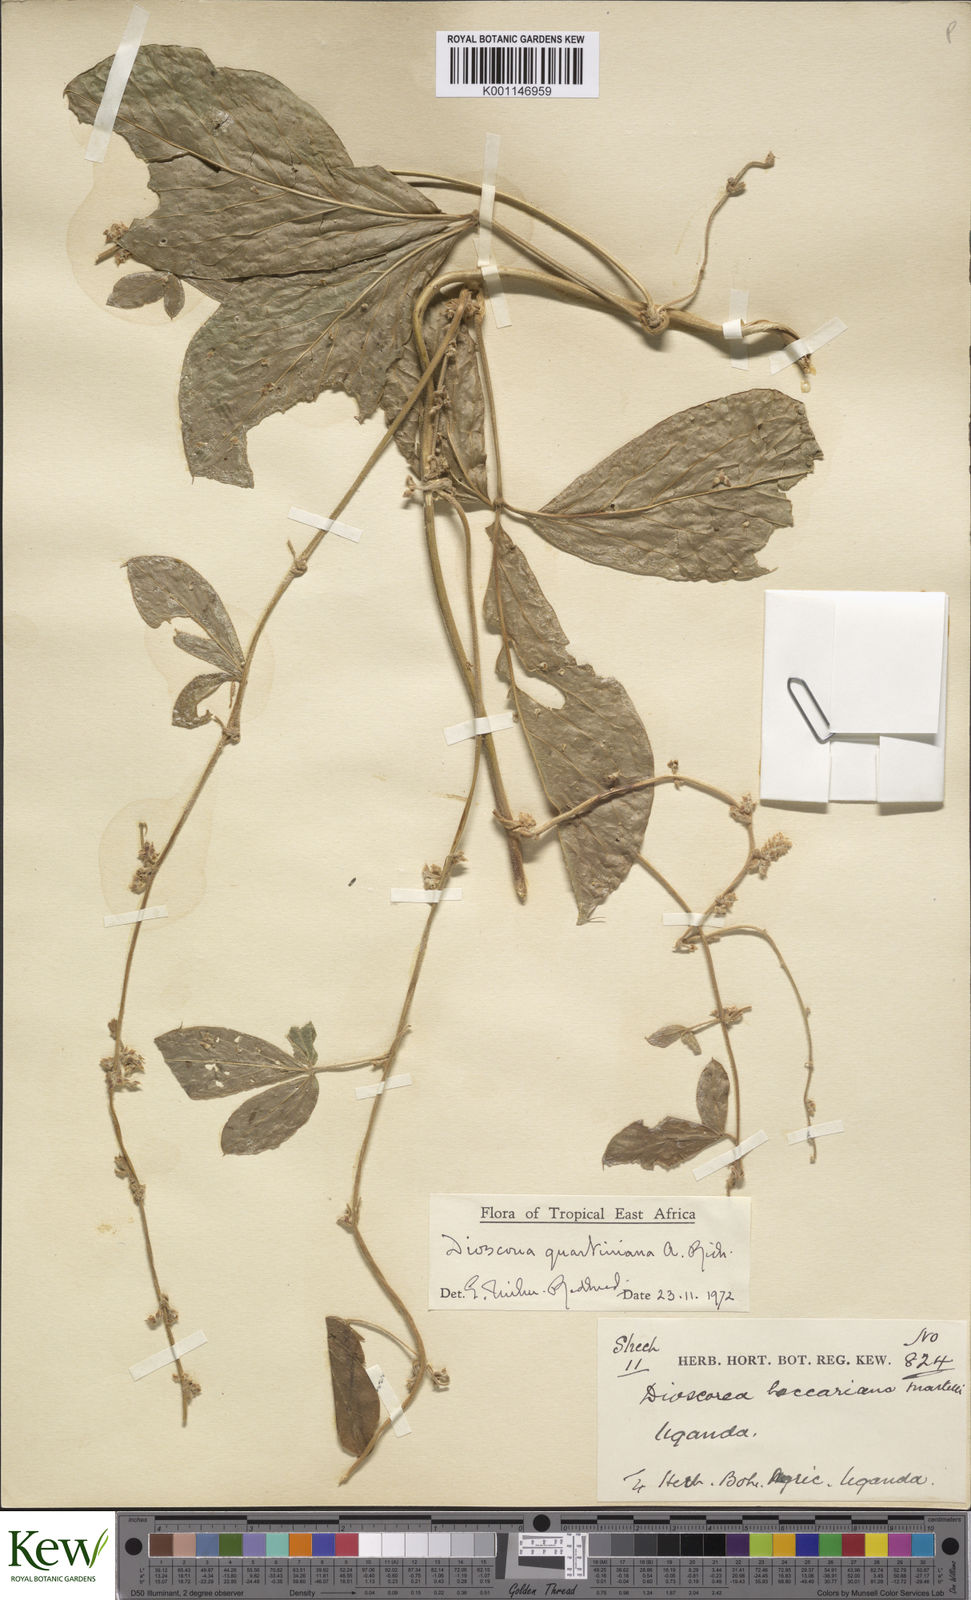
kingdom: Plantae
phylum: Tracheophyta
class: Liliopsida
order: Dioscoreales
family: Dioscoreaceae
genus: Dioscorea
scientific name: Dioscorea quartiniana
